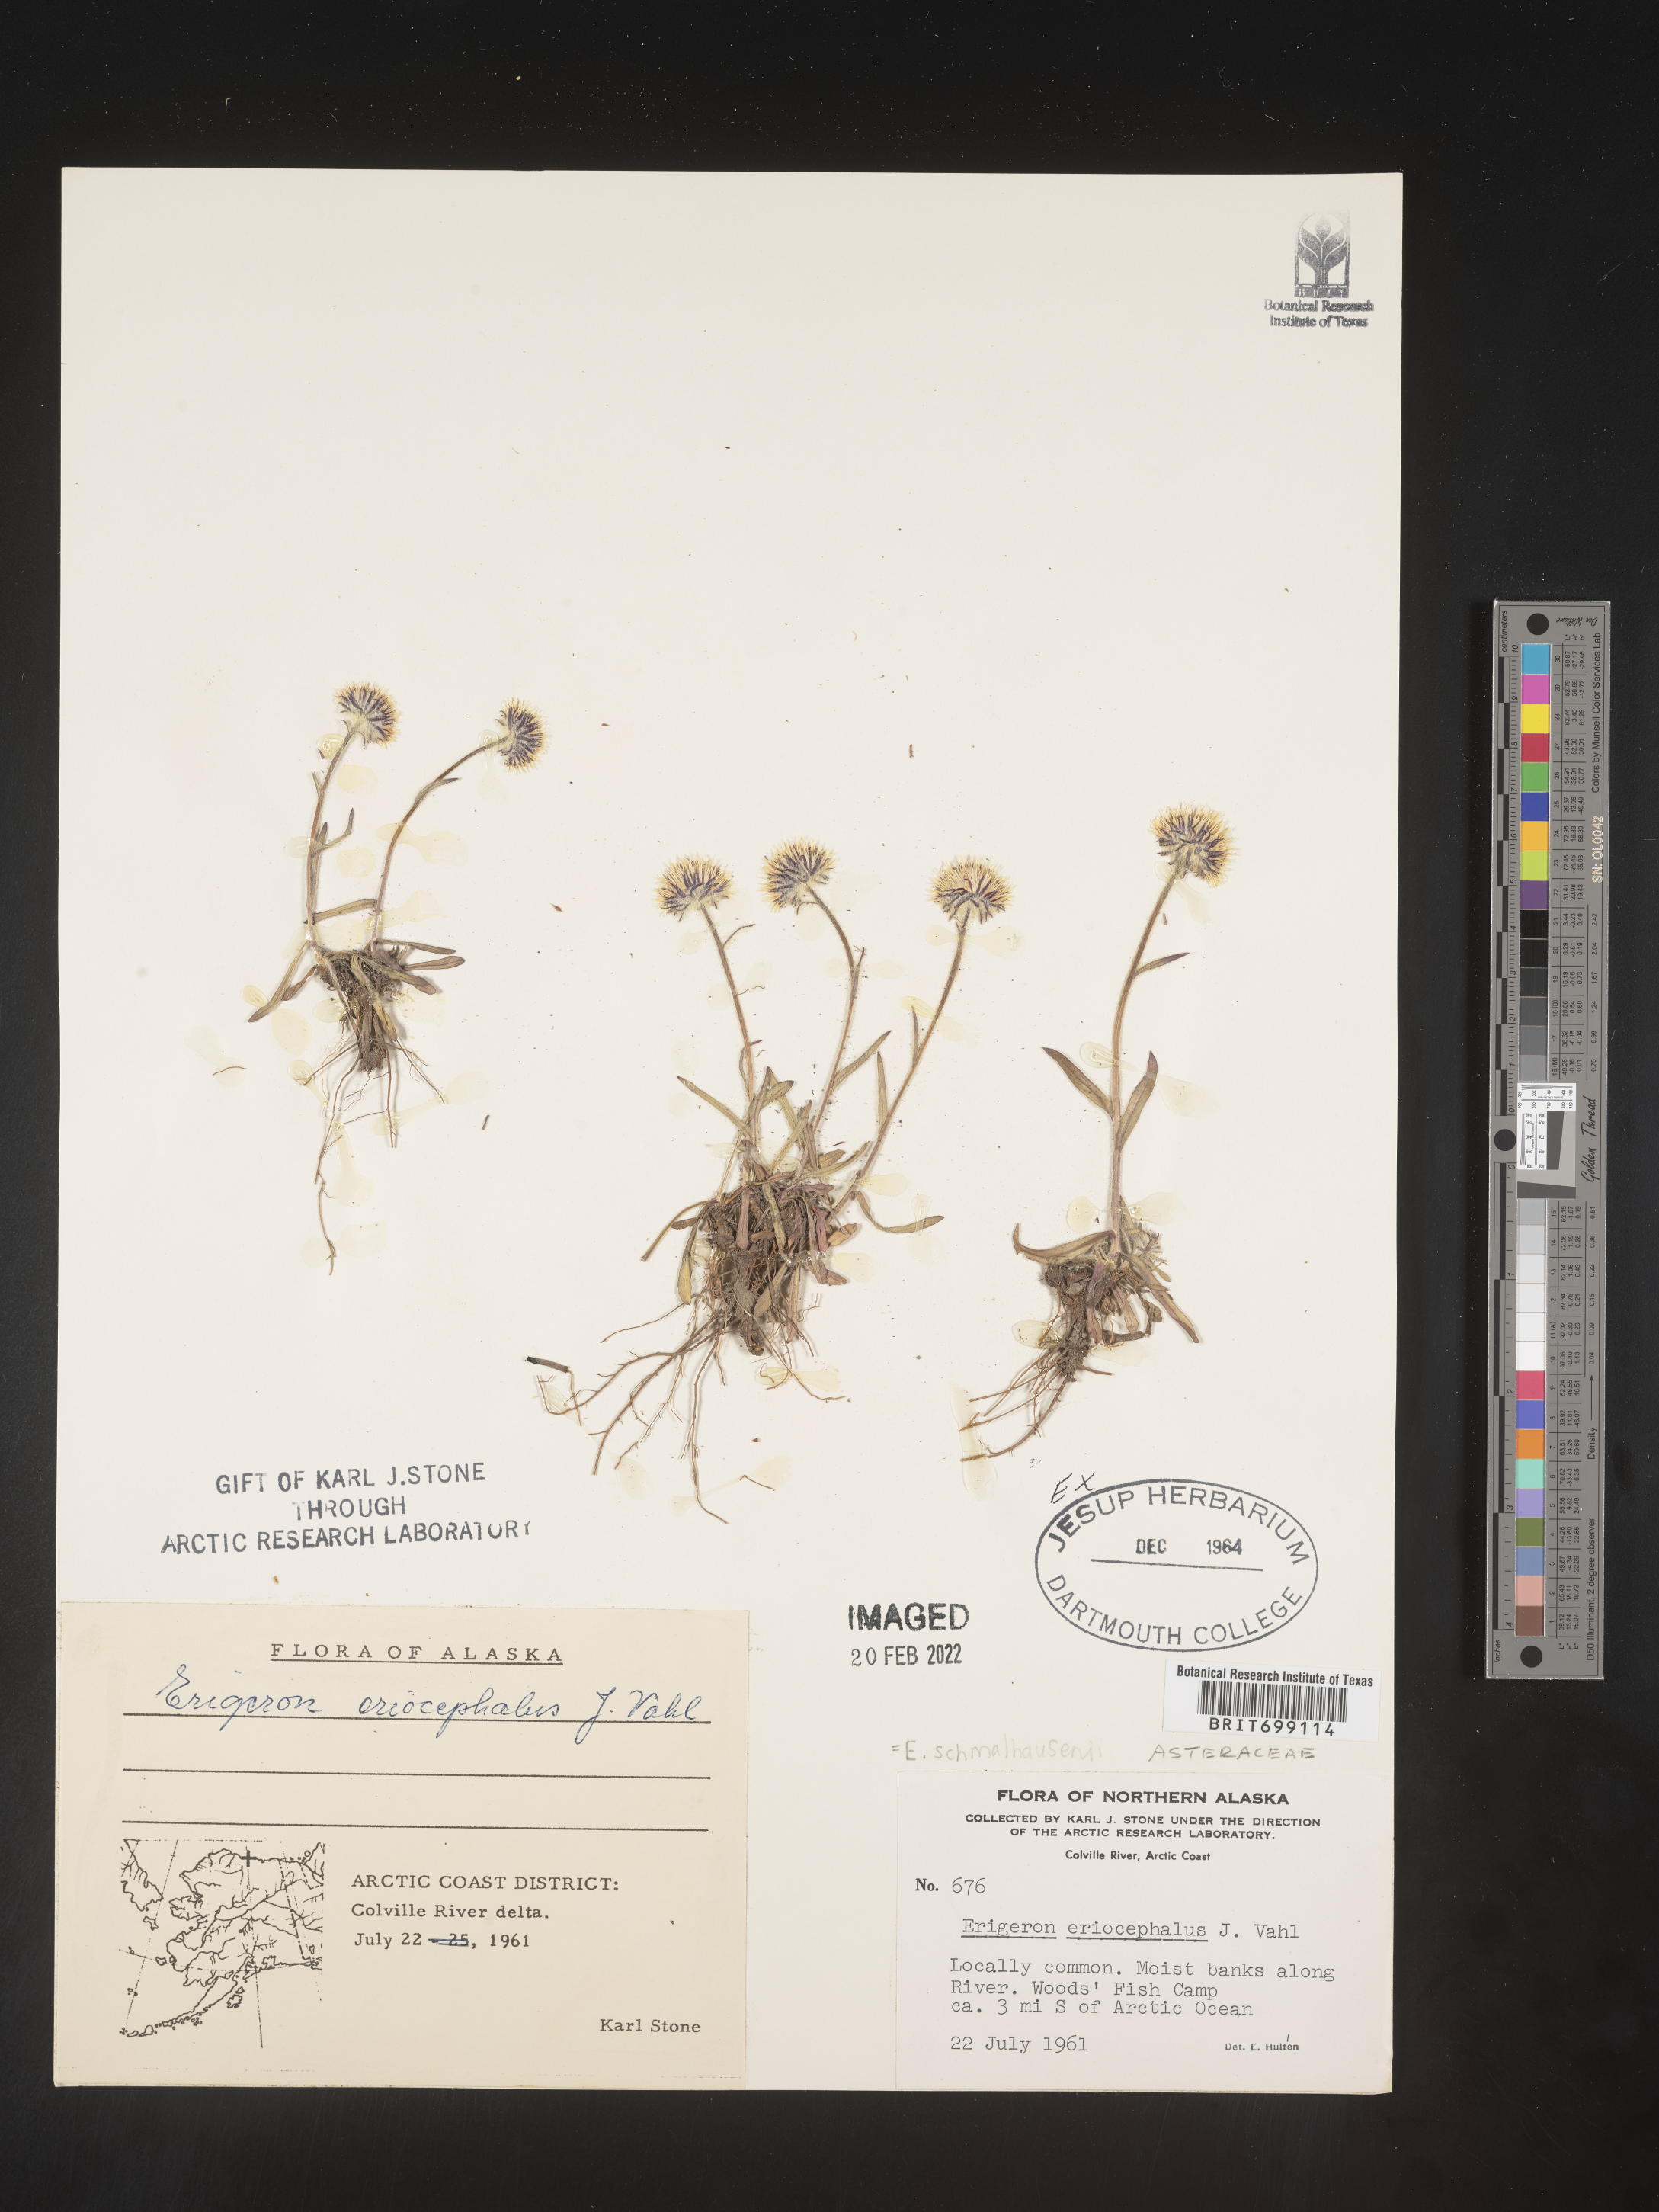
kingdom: Plantae
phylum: Tracheophyta
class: Magnoliopsida
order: Asterales
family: Asteraceae
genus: Erigeron
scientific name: Erigeron salmonensis
